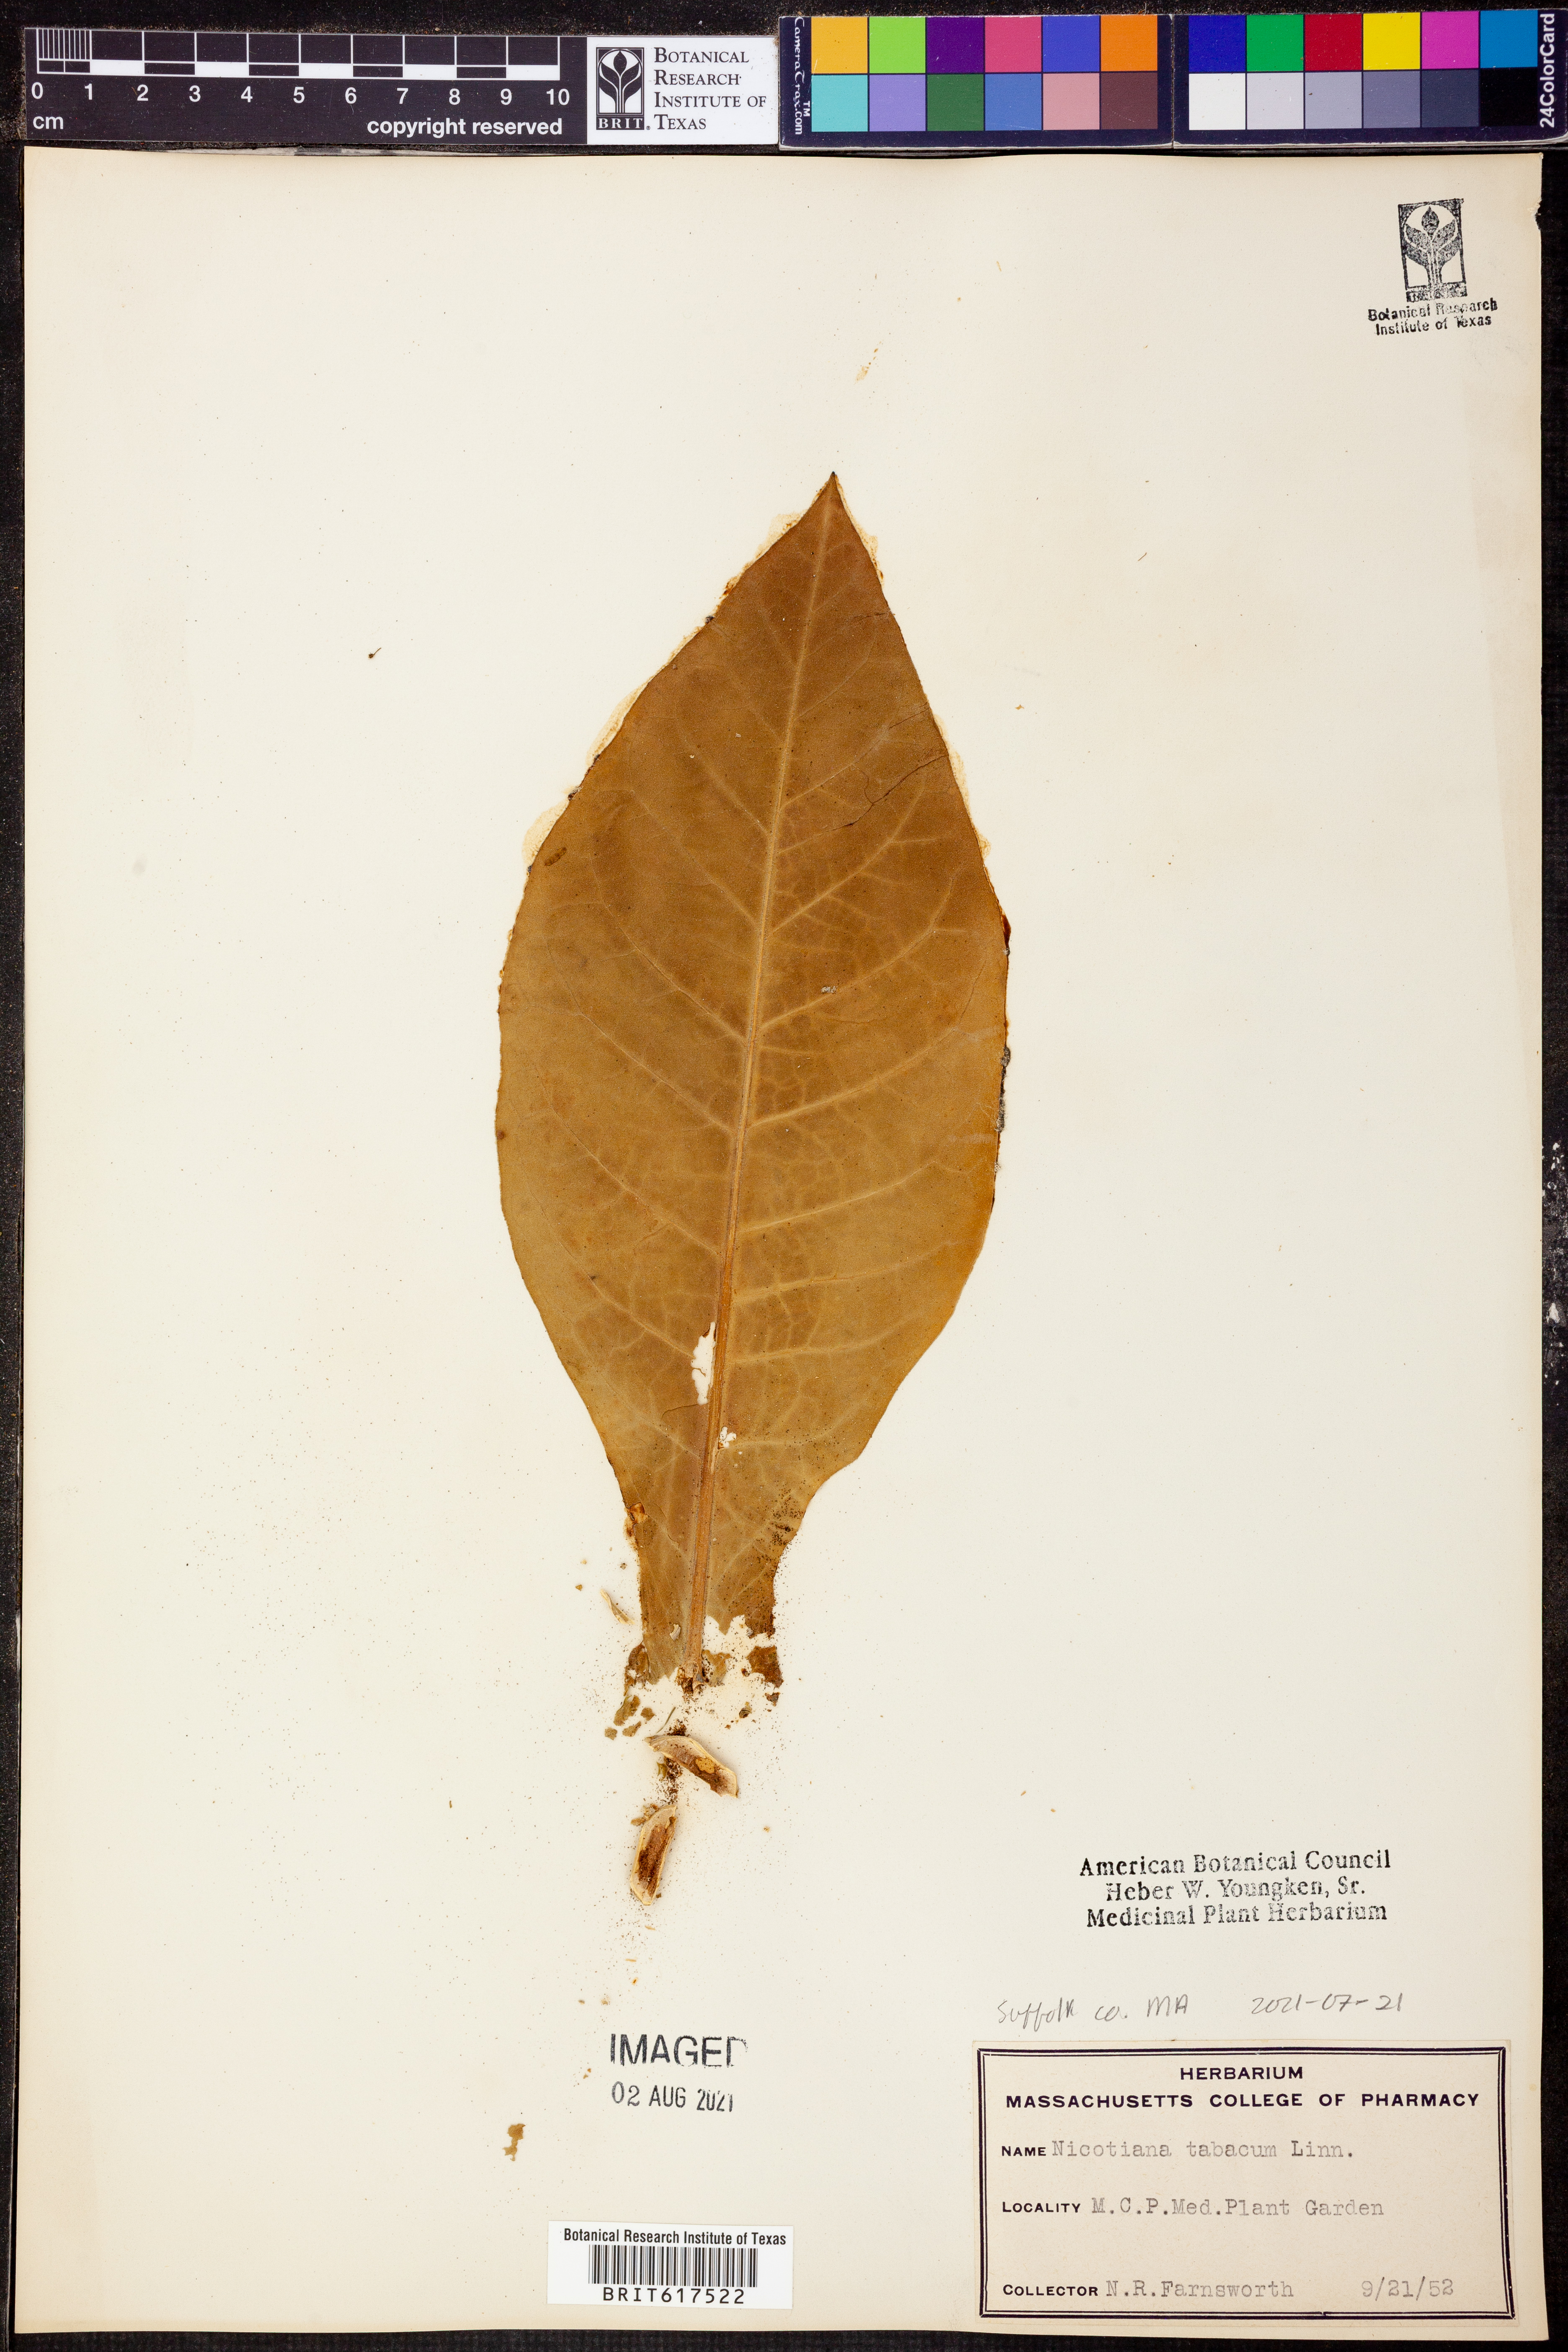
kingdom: Plantae
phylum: Tracheophyta
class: Magnoliopsida
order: Solanales
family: Solanaceae
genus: Nicotiana
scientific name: Nicotiana tabacum
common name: Tobacco
